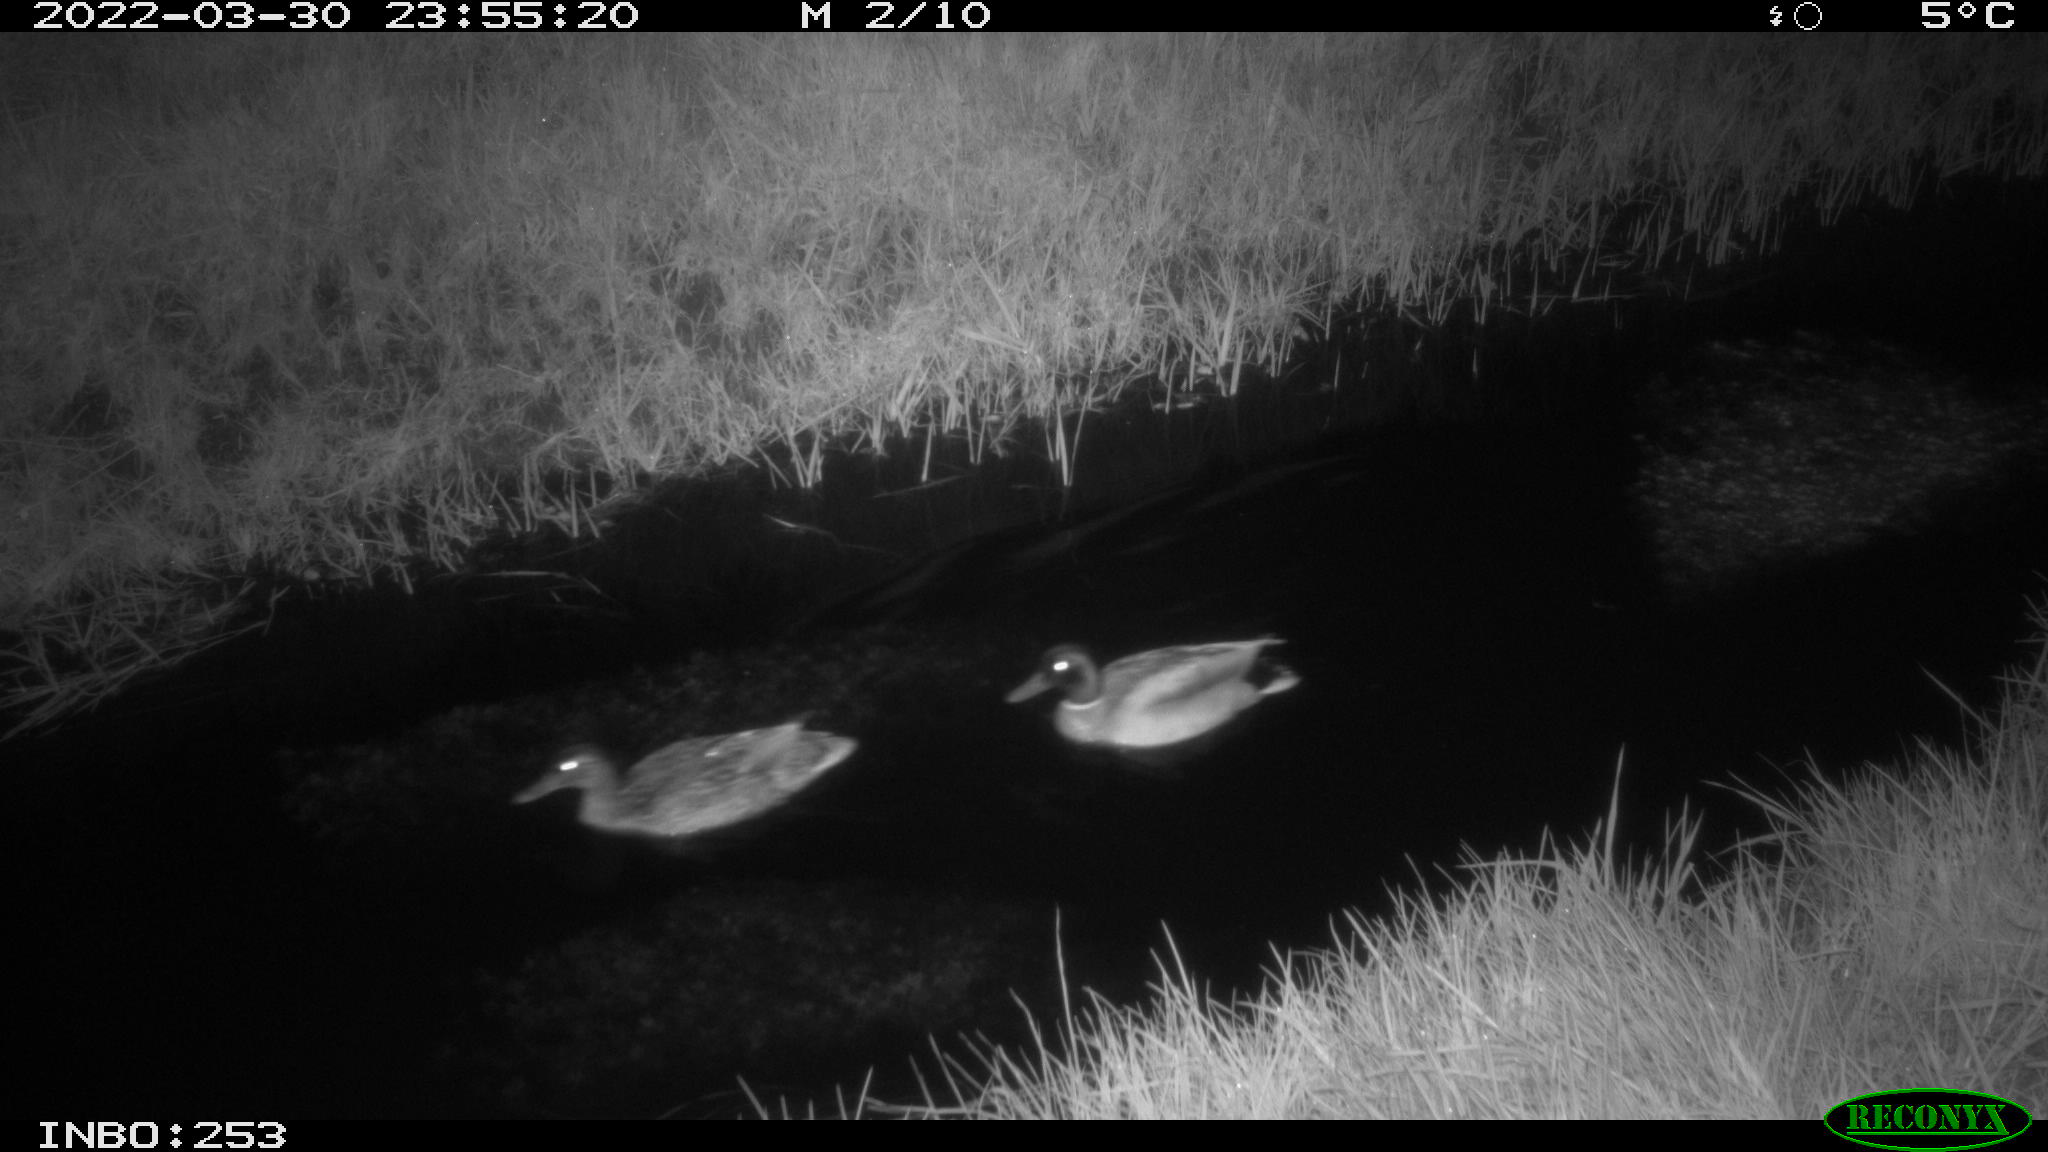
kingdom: Animalia
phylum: Chordata
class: Aves
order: Anseriformes
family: Anatidae
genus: Anas
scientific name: Anas platyrhynchos
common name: Mallard
